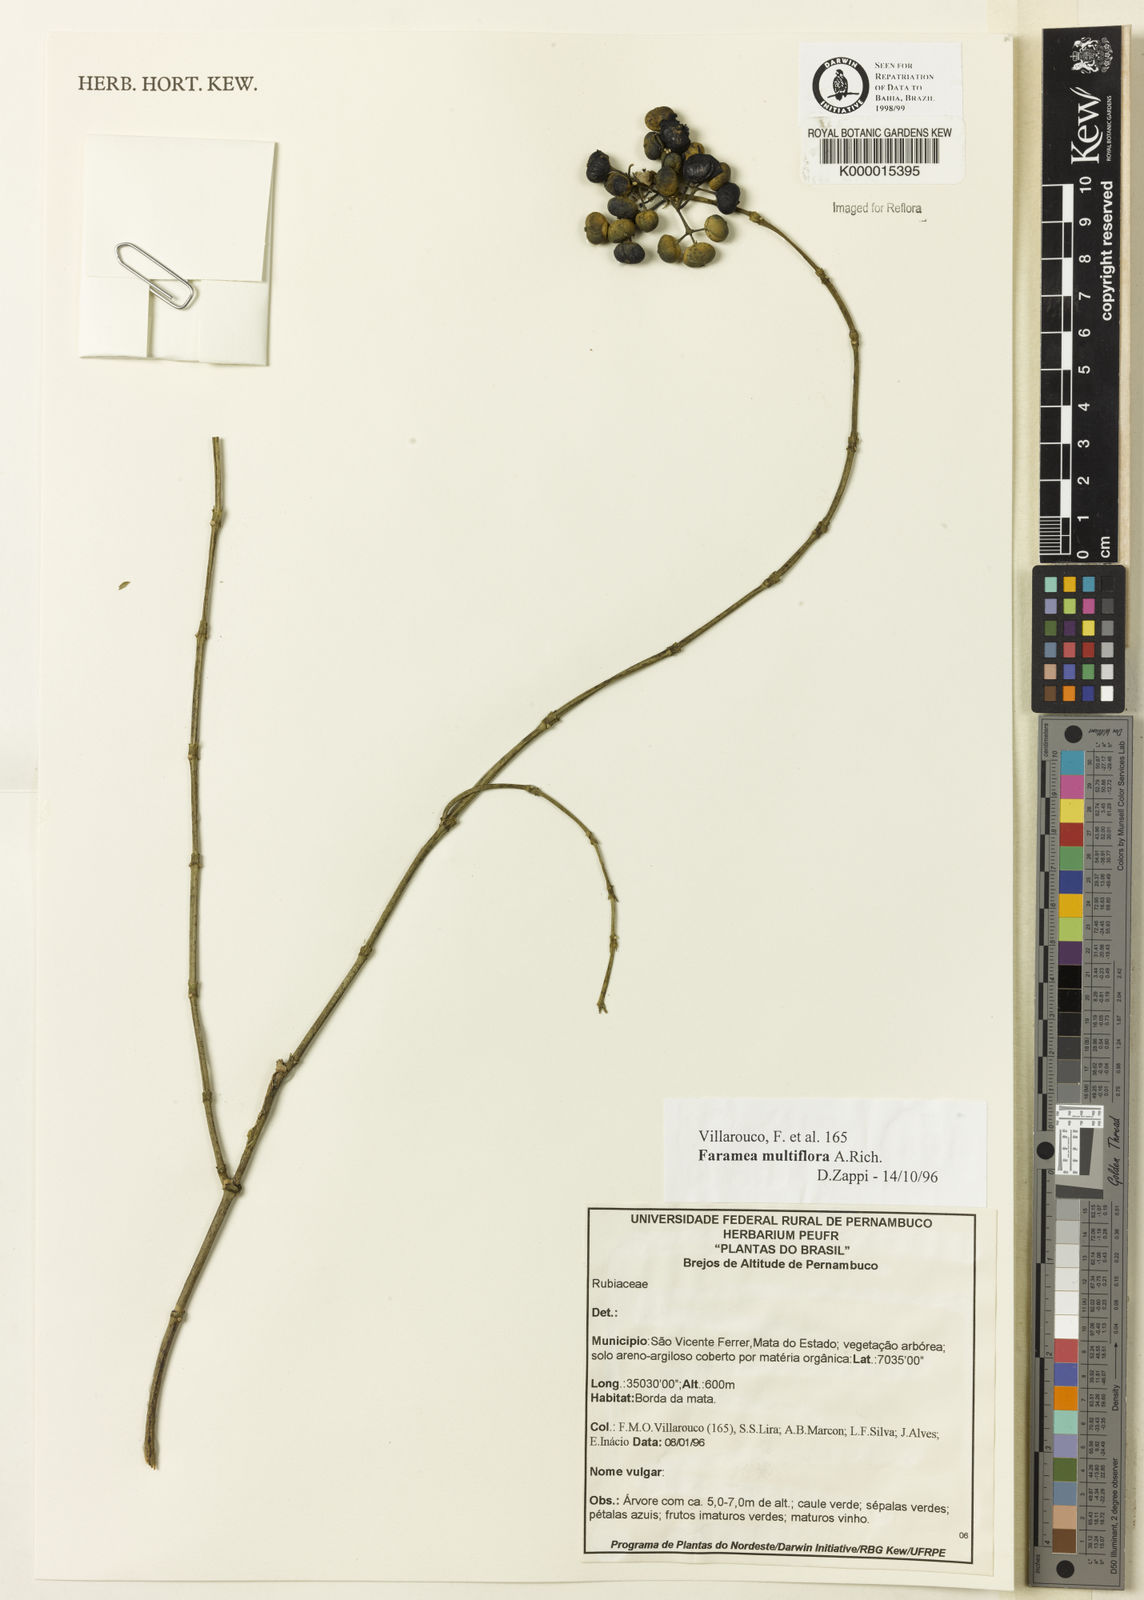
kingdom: Plantae
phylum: Tracheophyta
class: Magnoliopsida
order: Gentianales
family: Rubiaceae
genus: Faramea
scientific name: Faramea multiflora
